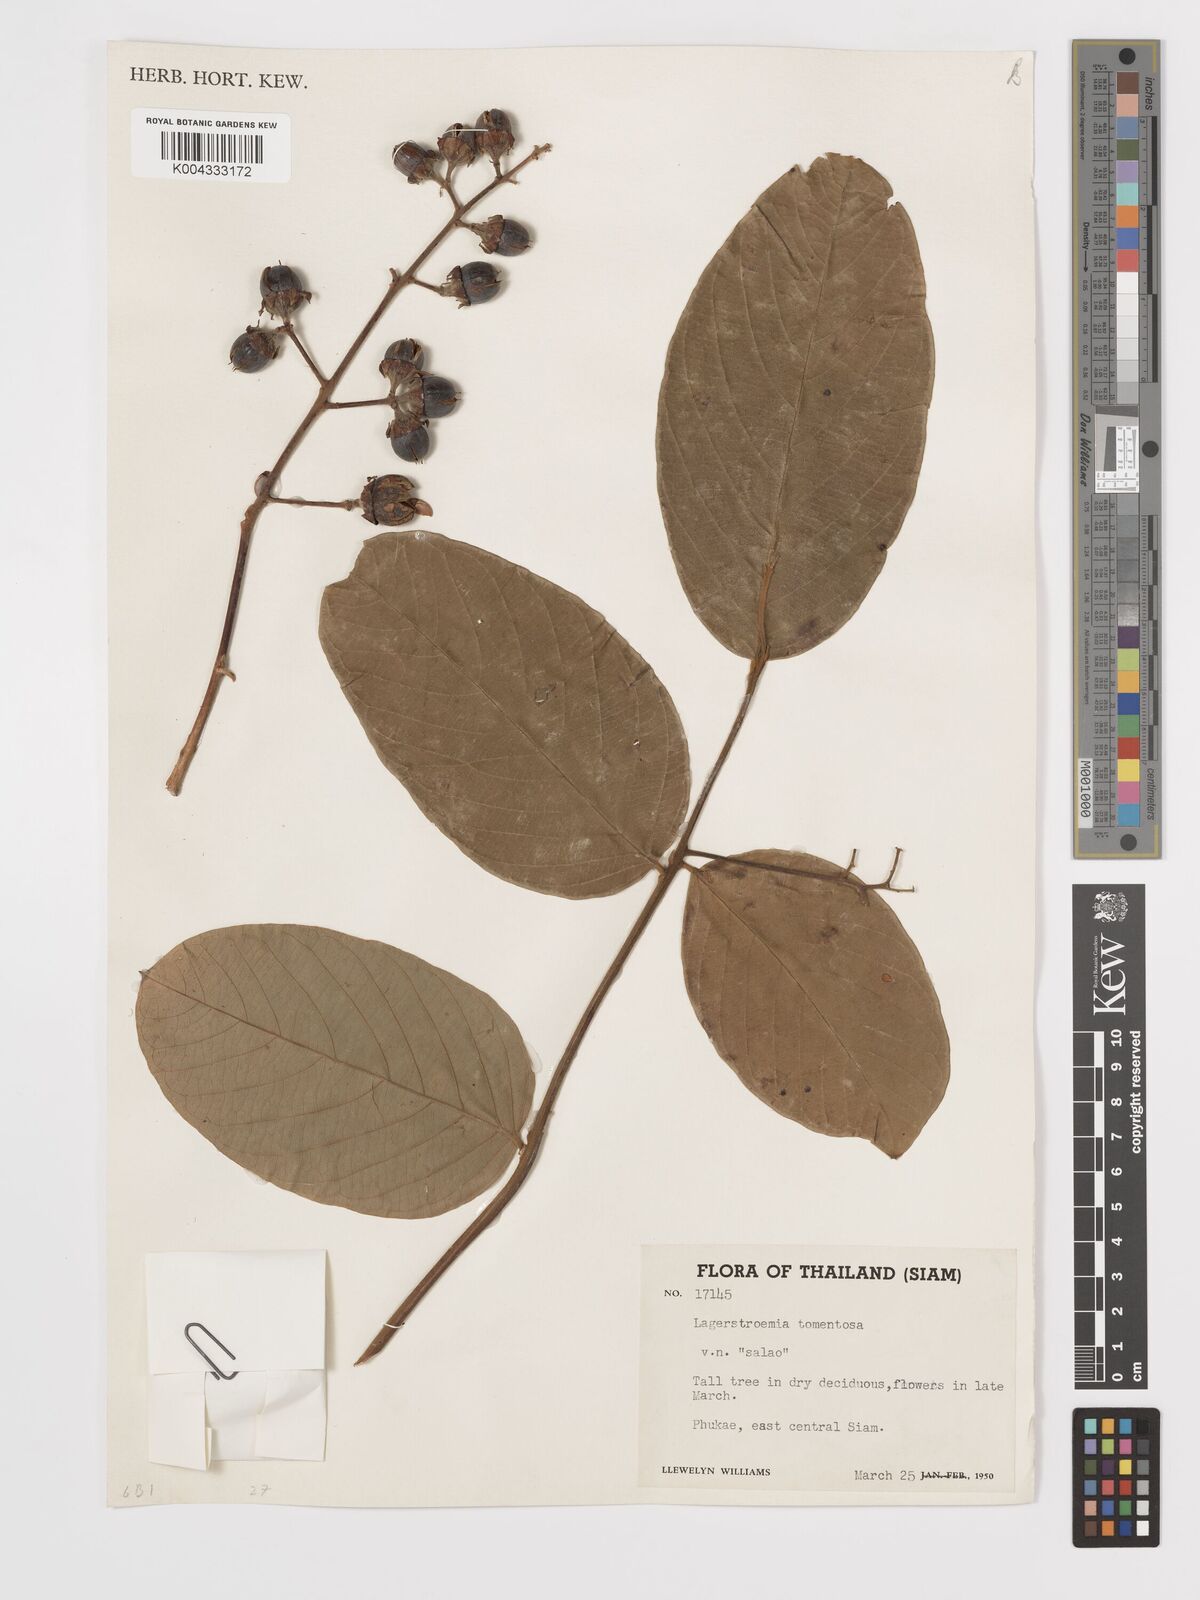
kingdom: Plantae
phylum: Tracheophyta
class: Magnoliopsida
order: Myrtales
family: Lythraceae
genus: Lagerstroemia
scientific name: Lagerstroemia tomentosa
